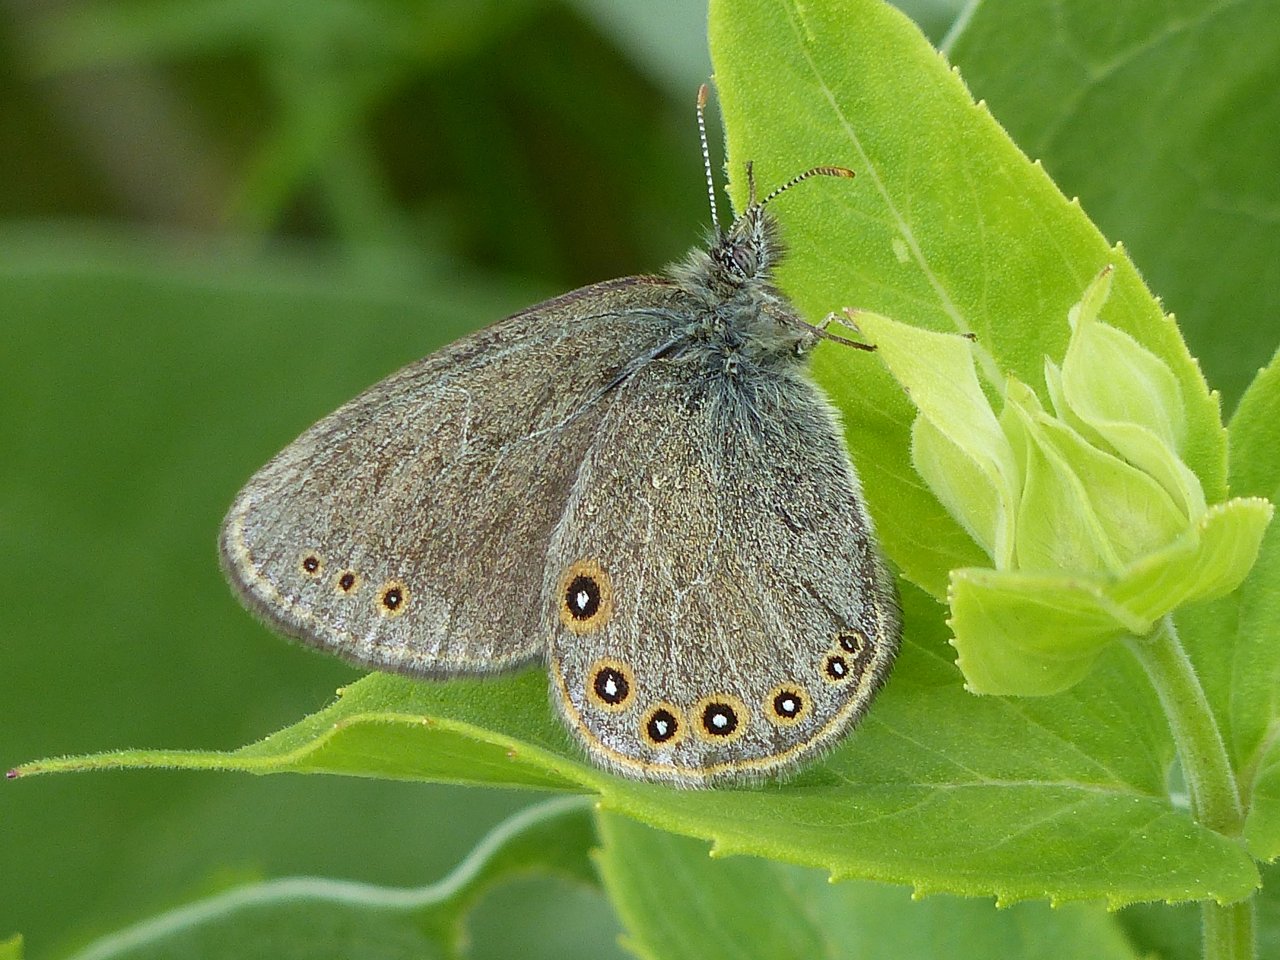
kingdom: Animalia
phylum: Arthropoda
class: Insecta
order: Lepidoptera
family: Nymphalidae
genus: Coenonympha
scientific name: Coenonympha haydeni
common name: Hayden's Ringlet
